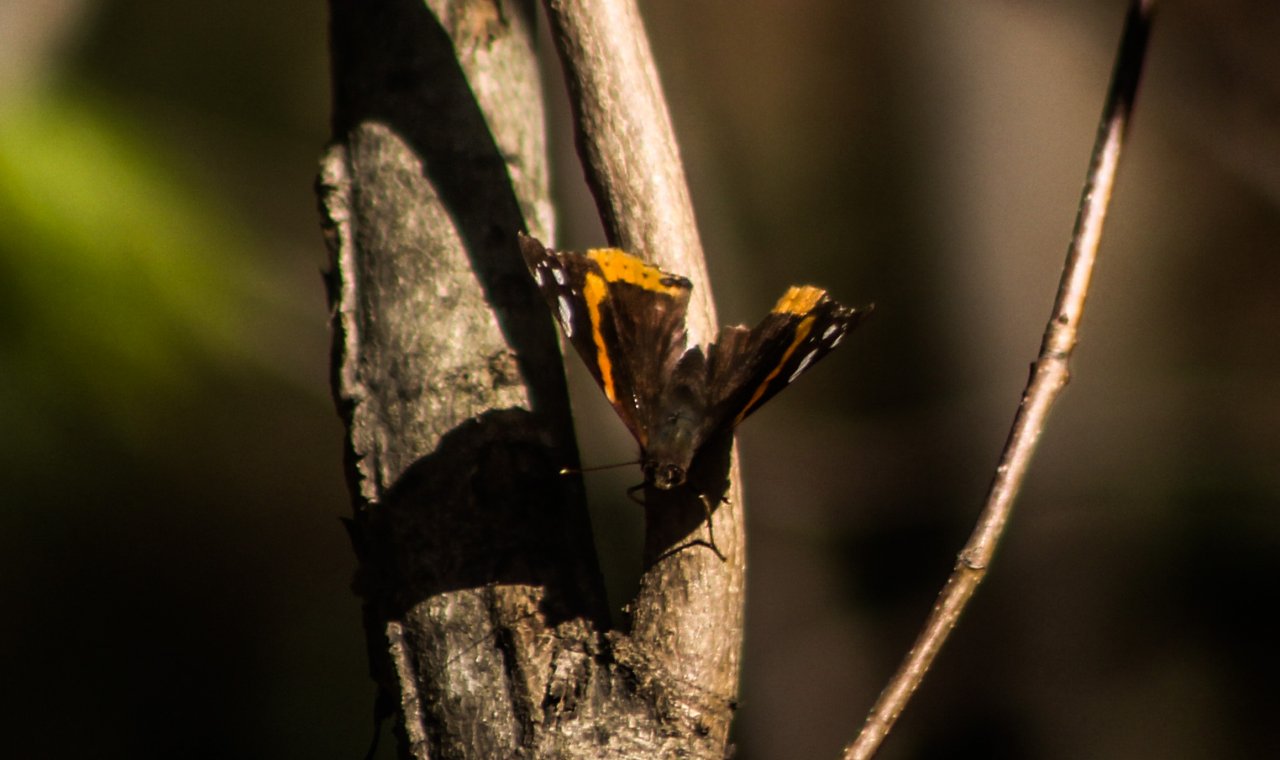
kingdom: Animalia
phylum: Arthropoda
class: Insecta
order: Lepidoptera
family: Nymphalidae
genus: Vanessa
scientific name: Vanessa atalanta
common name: Red Admiral
